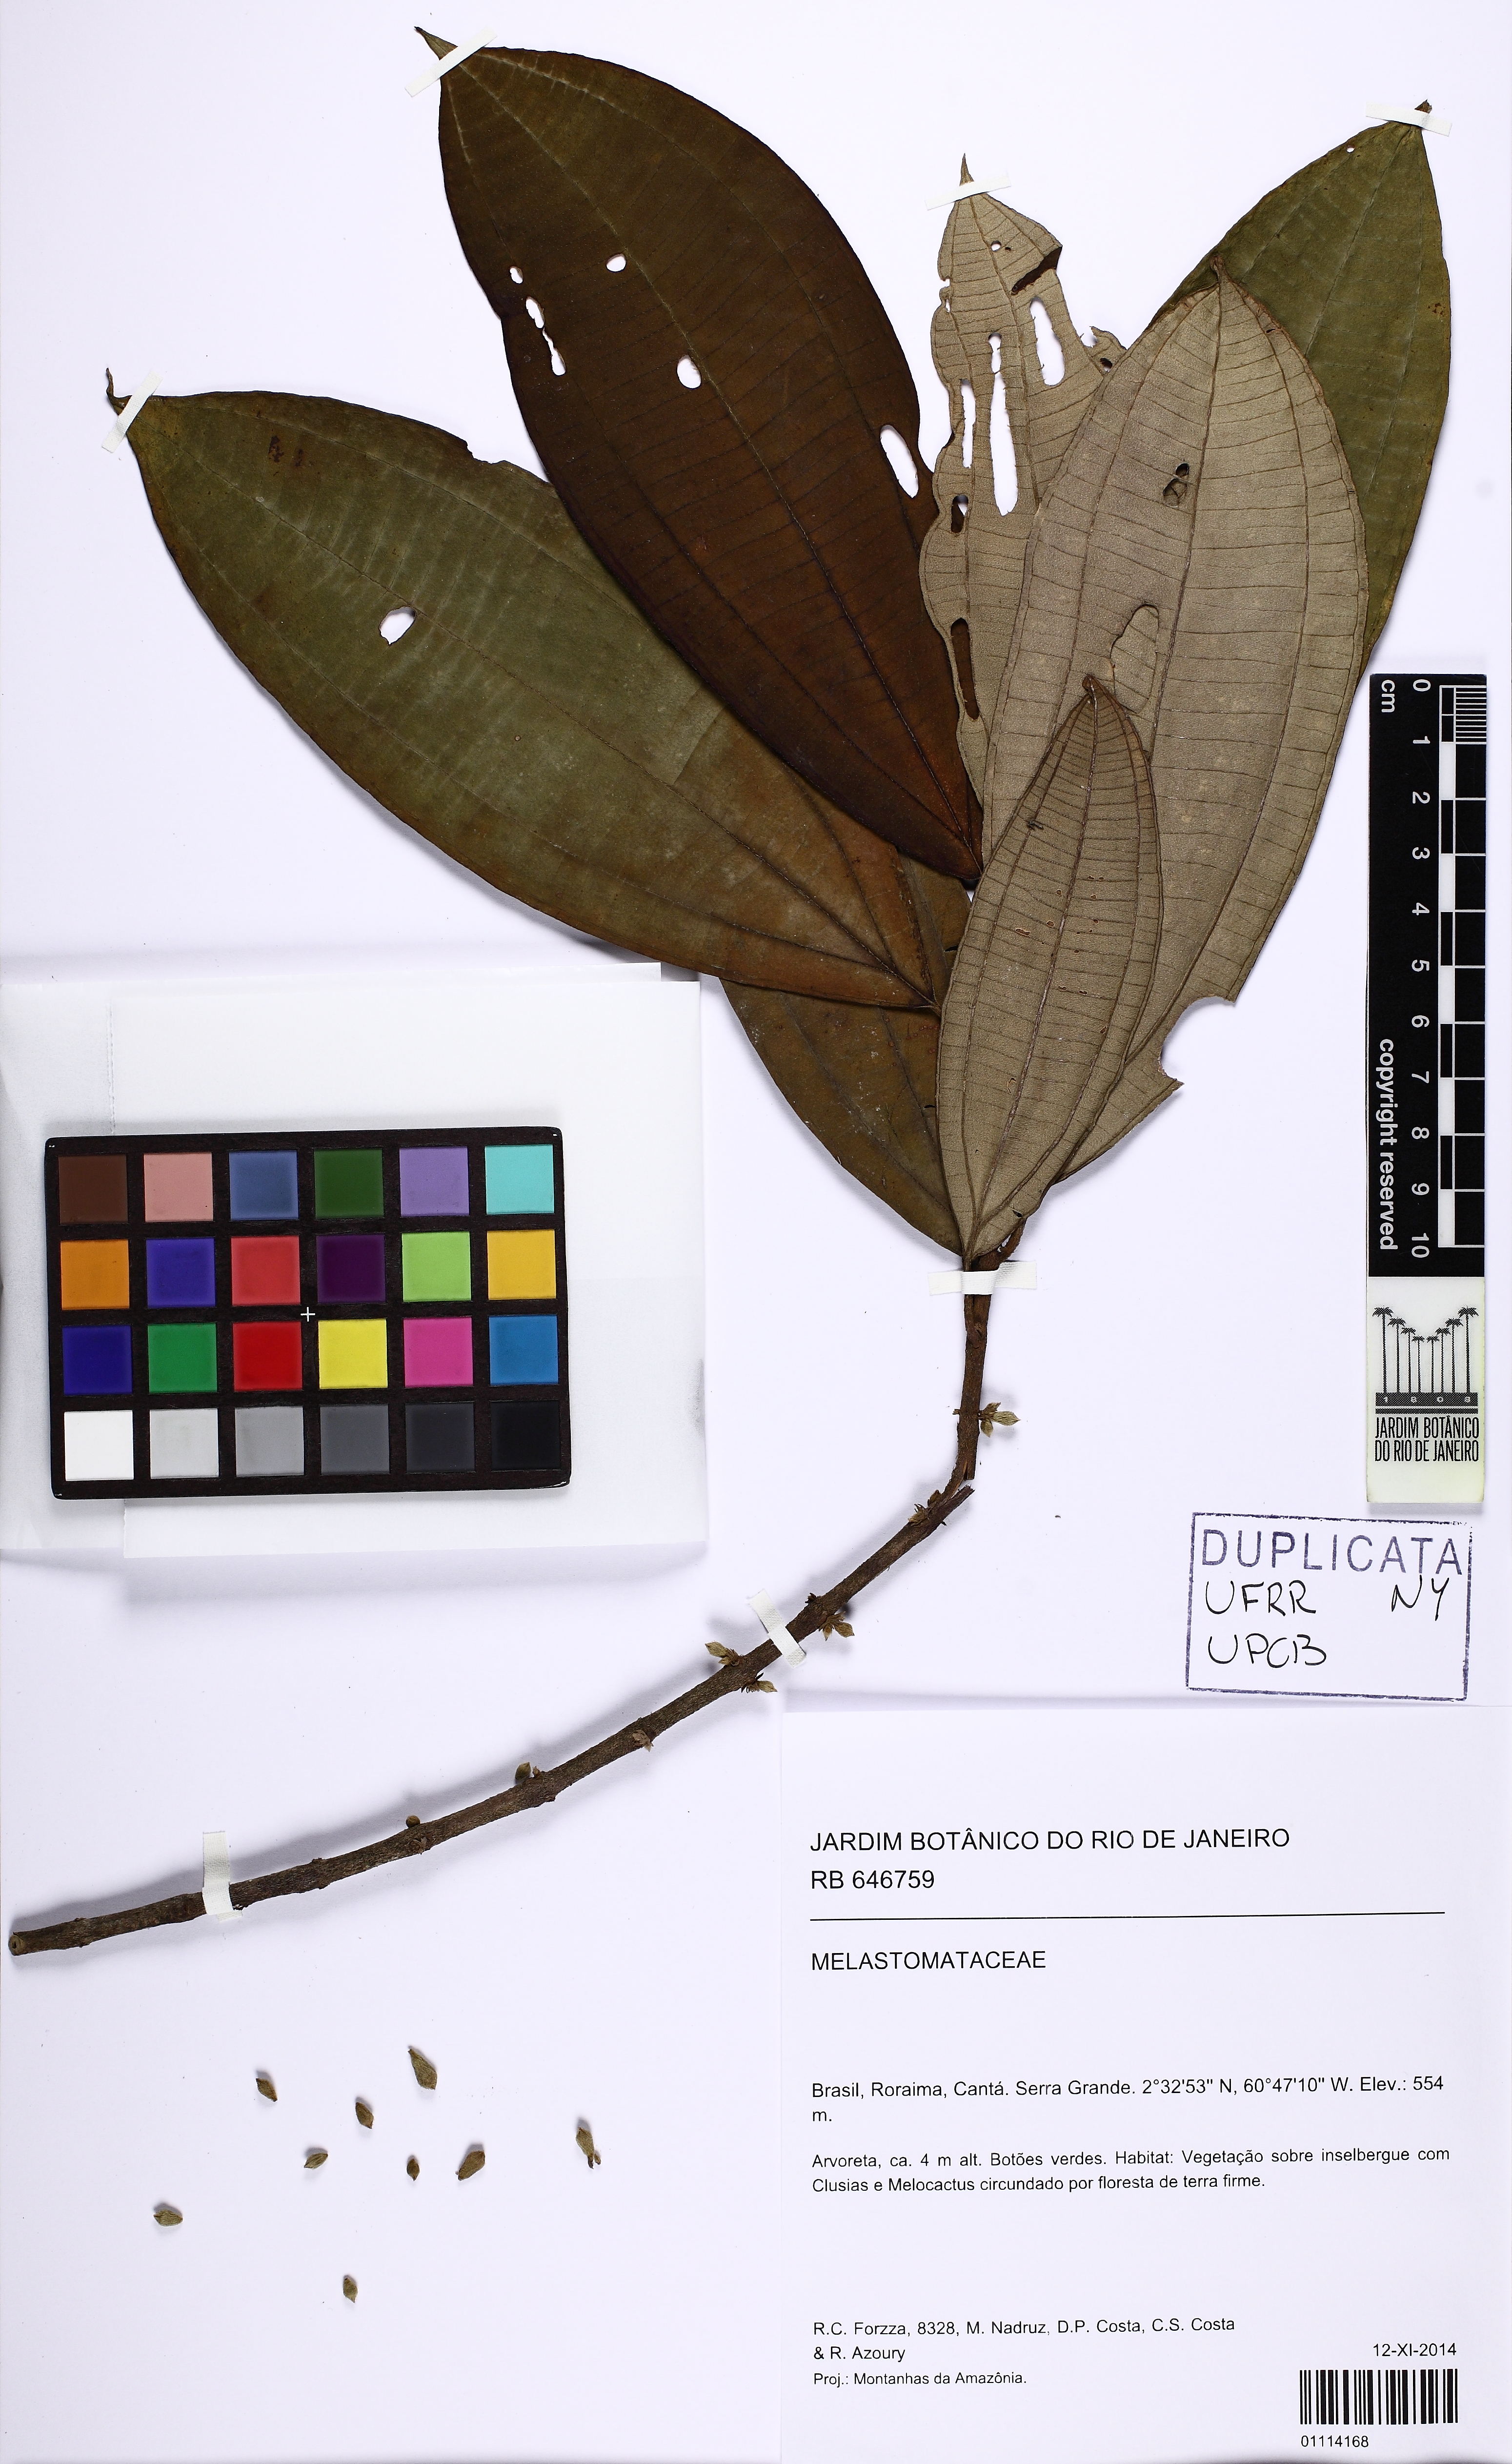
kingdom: Plantae
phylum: Tracheophyta
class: Magnoliopsida
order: Myrtales
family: Melastomataceae
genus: Henriettea
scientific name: Henriettea
